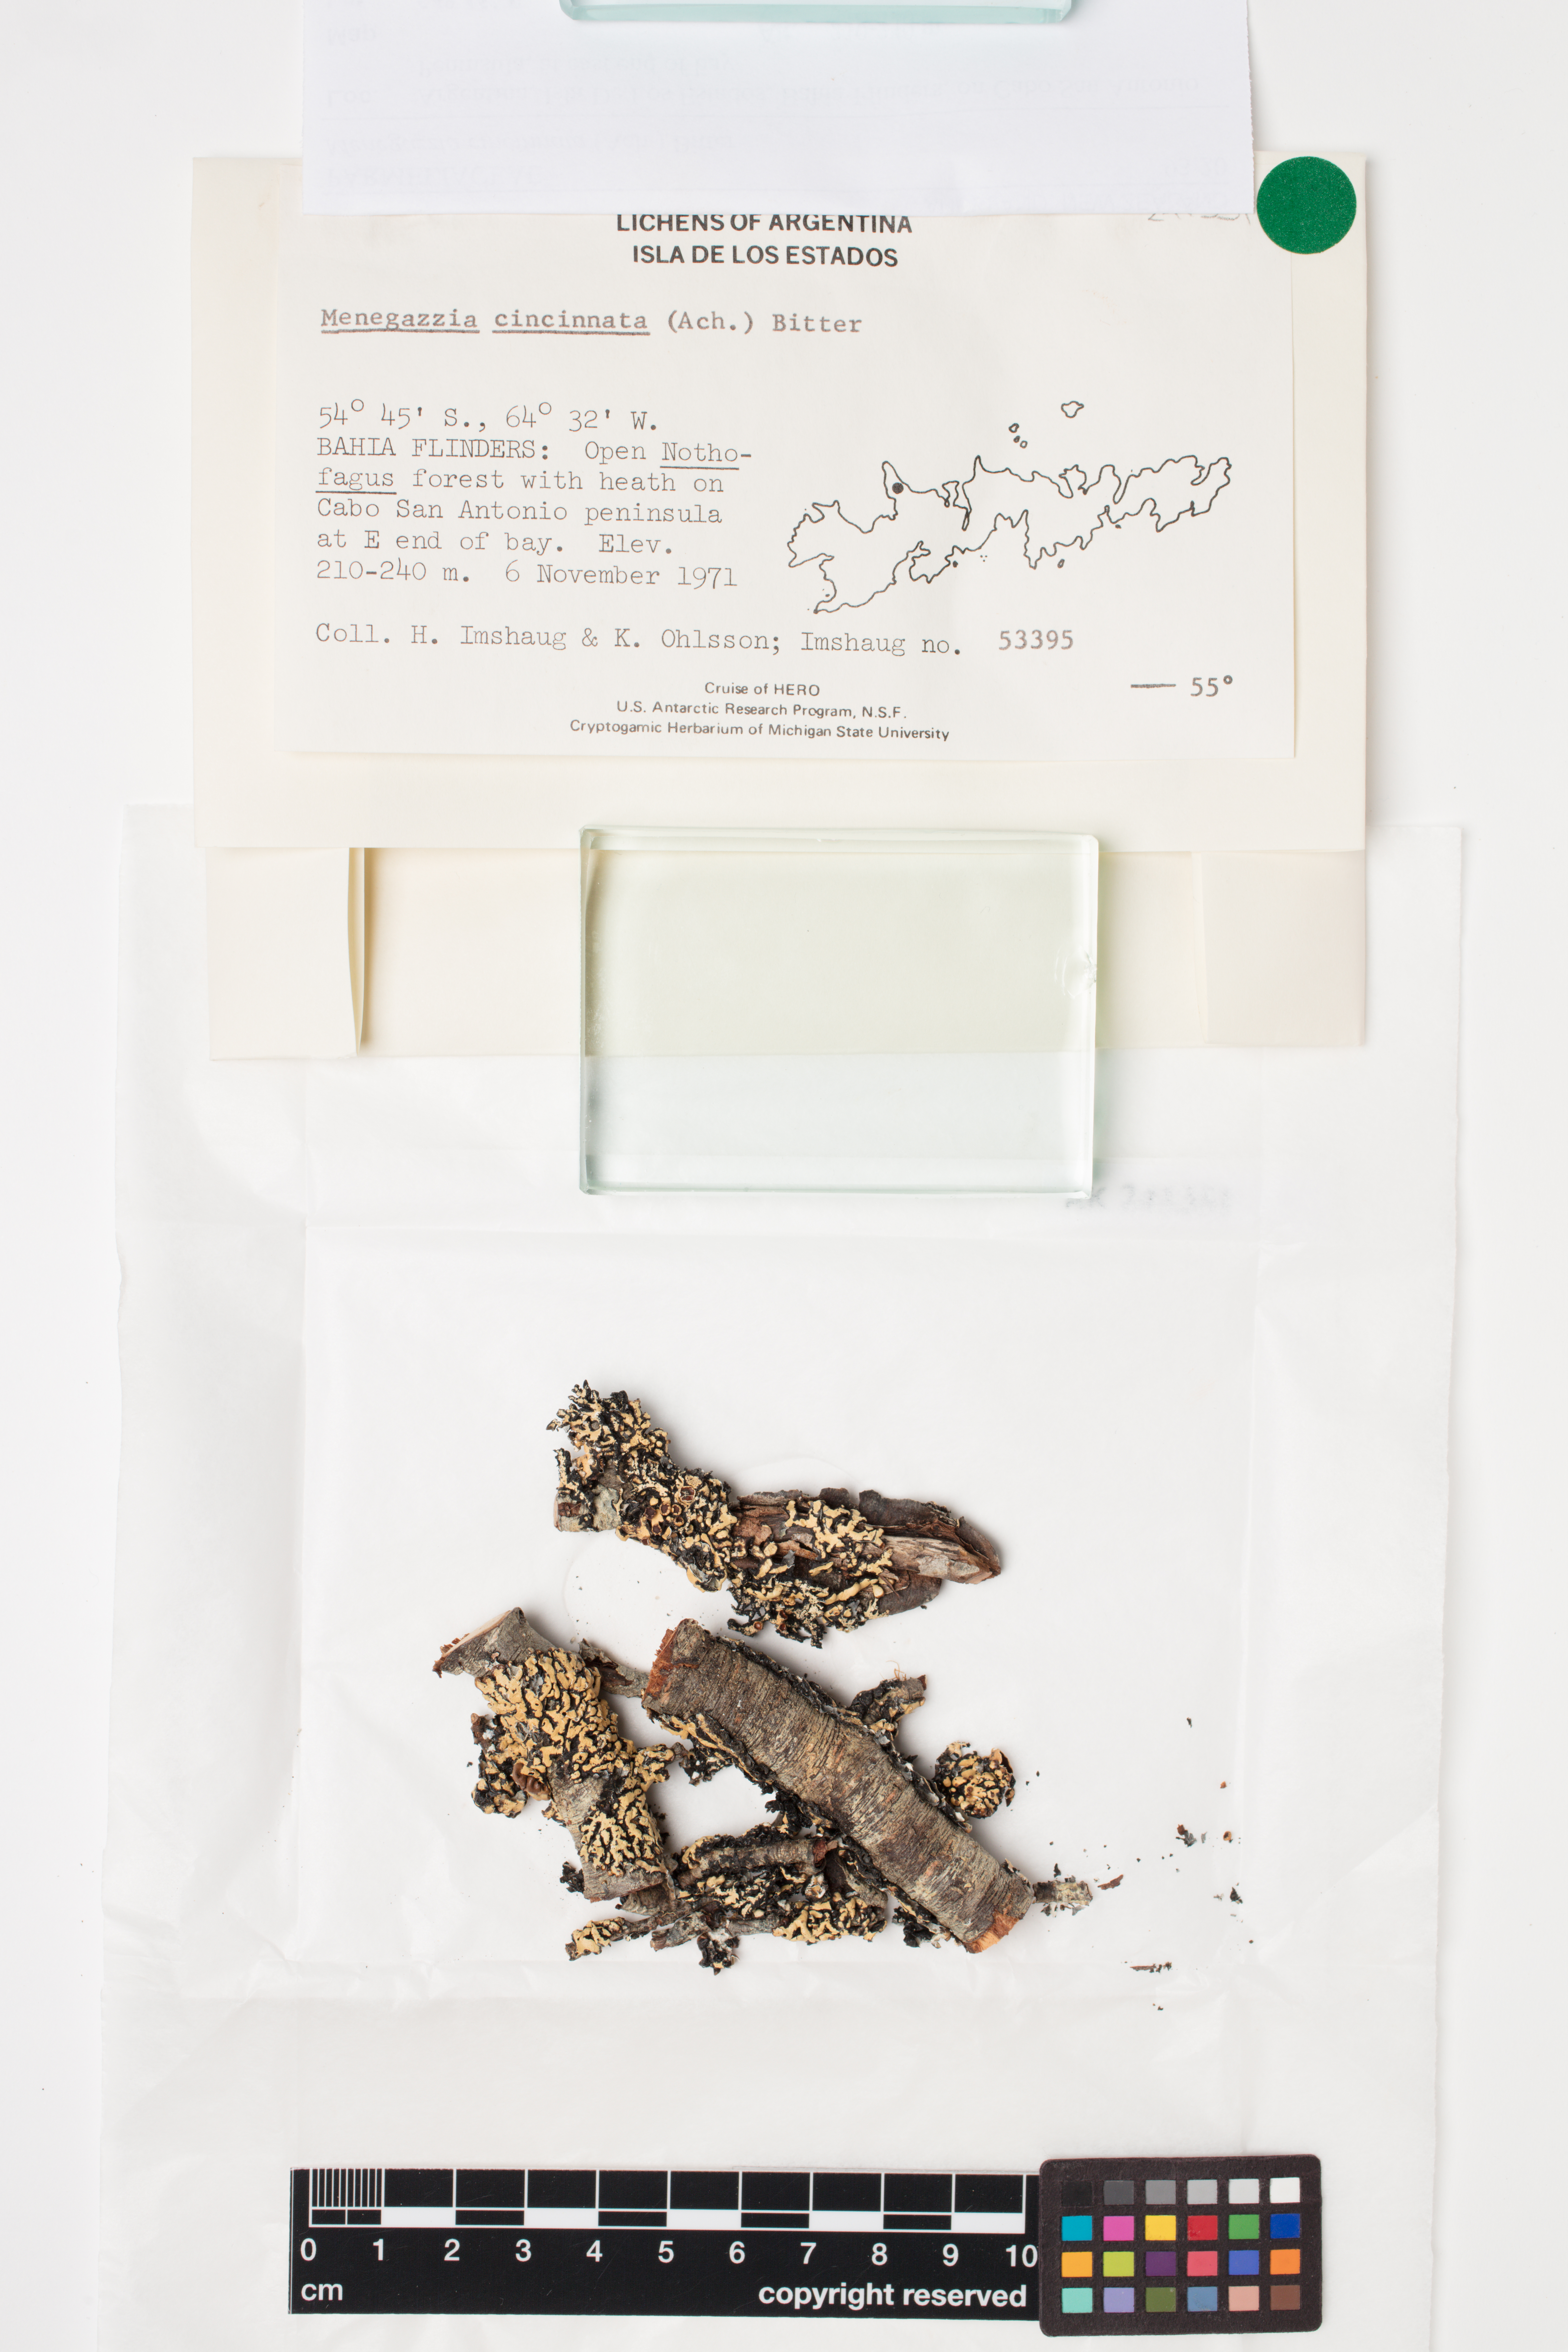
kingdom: Fungi
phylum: Ascomycota
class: Lecanoromycetes
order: Lecanorales
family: Parmeliaceae
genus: Menegazzia
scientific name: Menegazzia cincinnata
